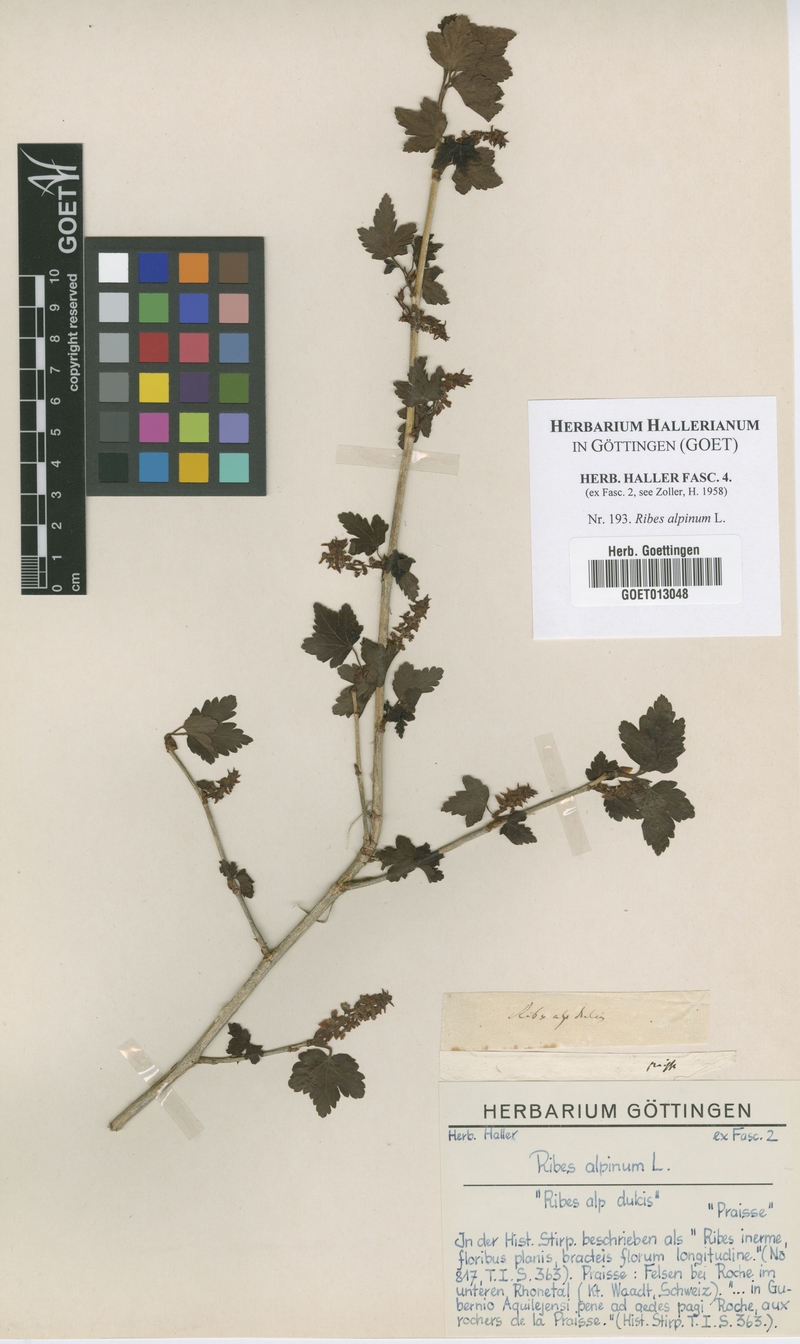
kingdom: Plantae
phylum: Tracheophyta
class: Magnoliopsida
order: Saxifragales
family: Grossulariaceae
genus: Ribes
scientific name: Ribes alpinum
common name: Alpine currant
